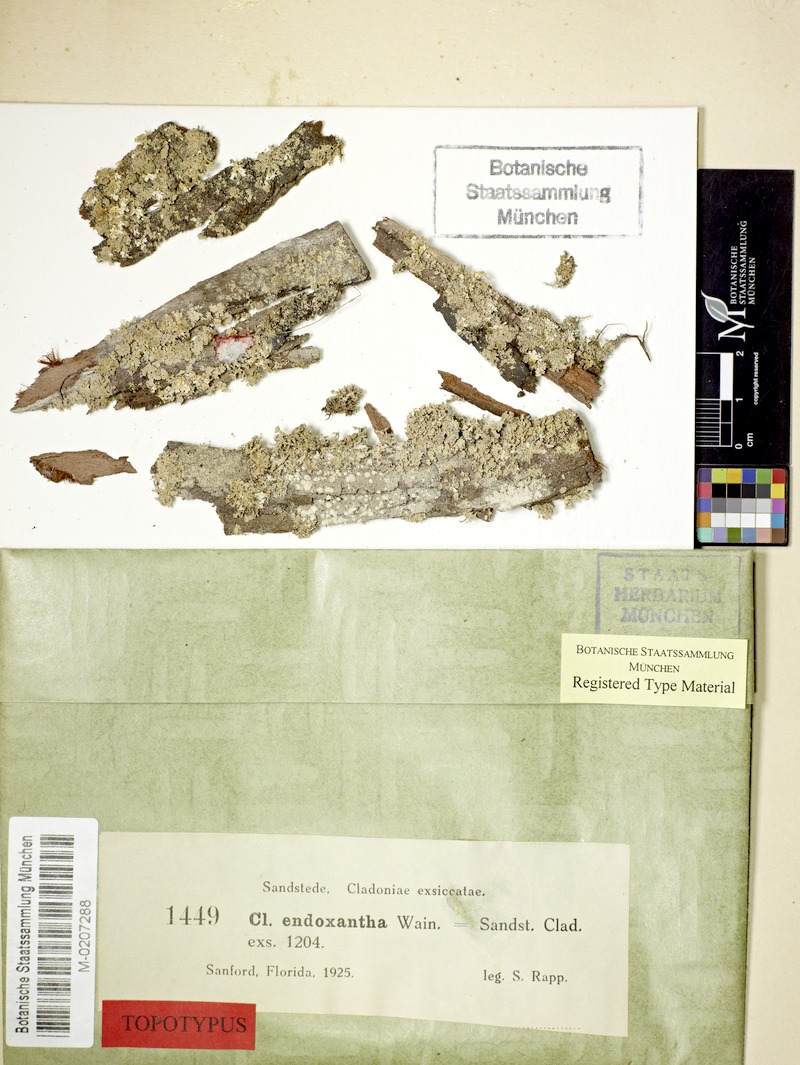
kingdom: Fungi
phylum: Ascomycota
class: Lecanoromycetes
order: Lecanorales
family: Cladoniaceae
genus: Cladonia
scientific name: Cladonia endoxantha
